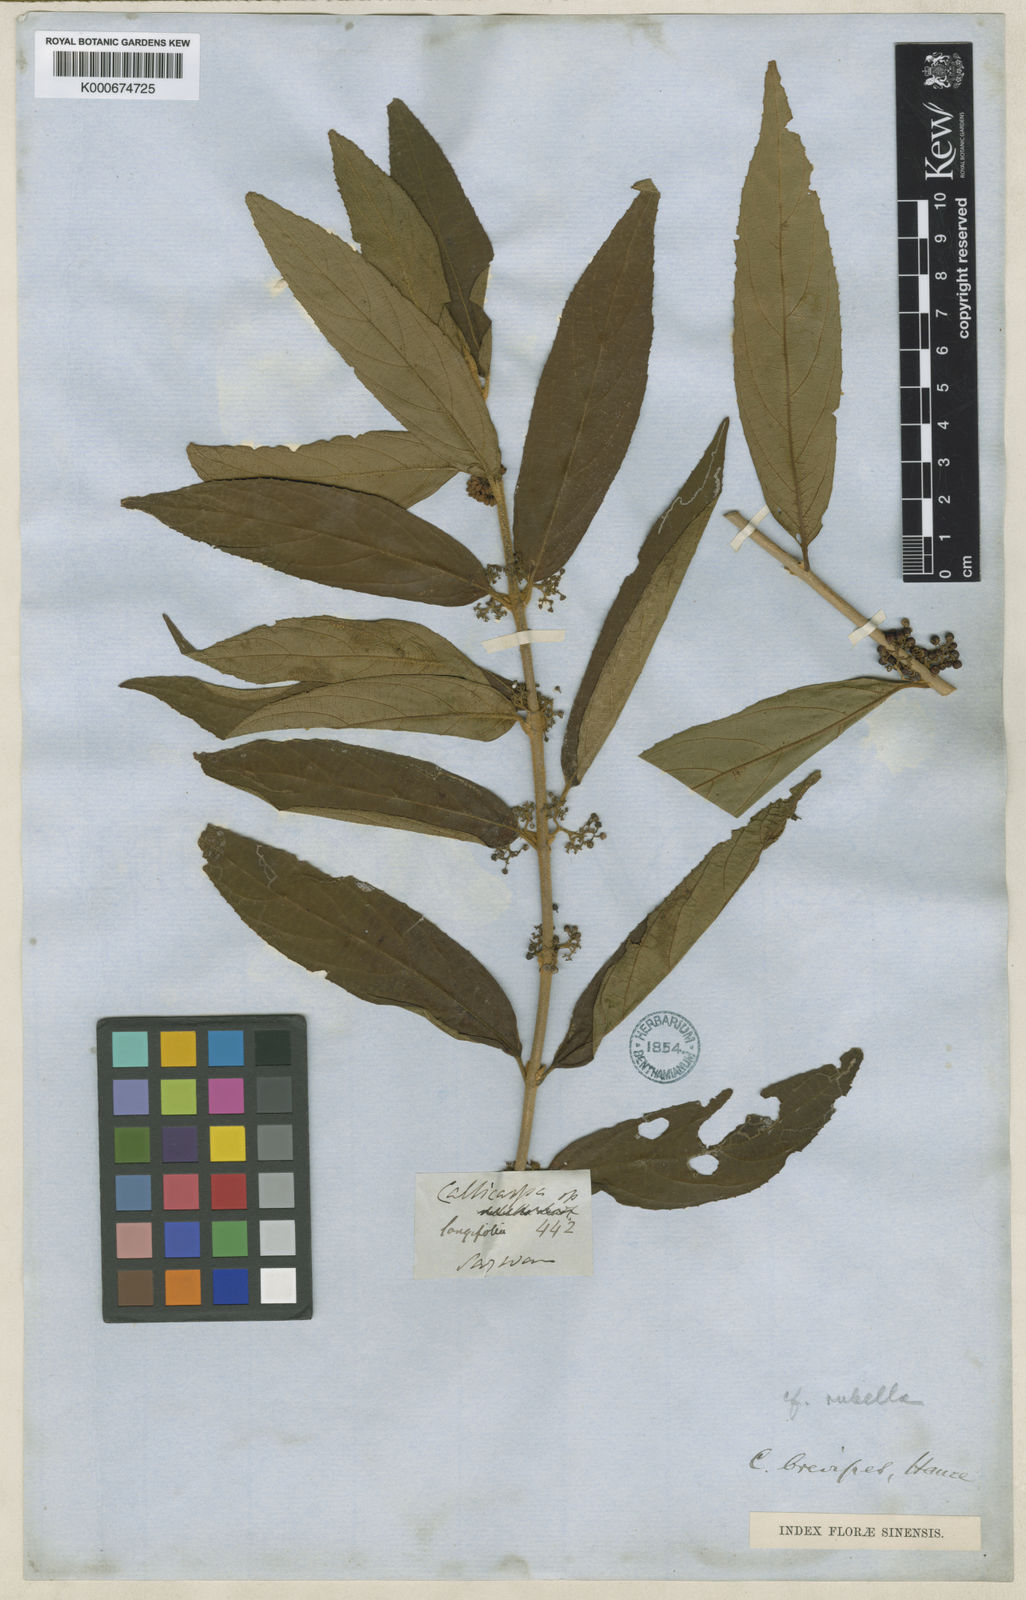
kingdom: Plantae
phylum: Tracheophyta
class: Magnoliopsida
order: Lamiales
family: Lamiaceae
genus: Callicarpa
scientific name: Callicarpa brevipes
